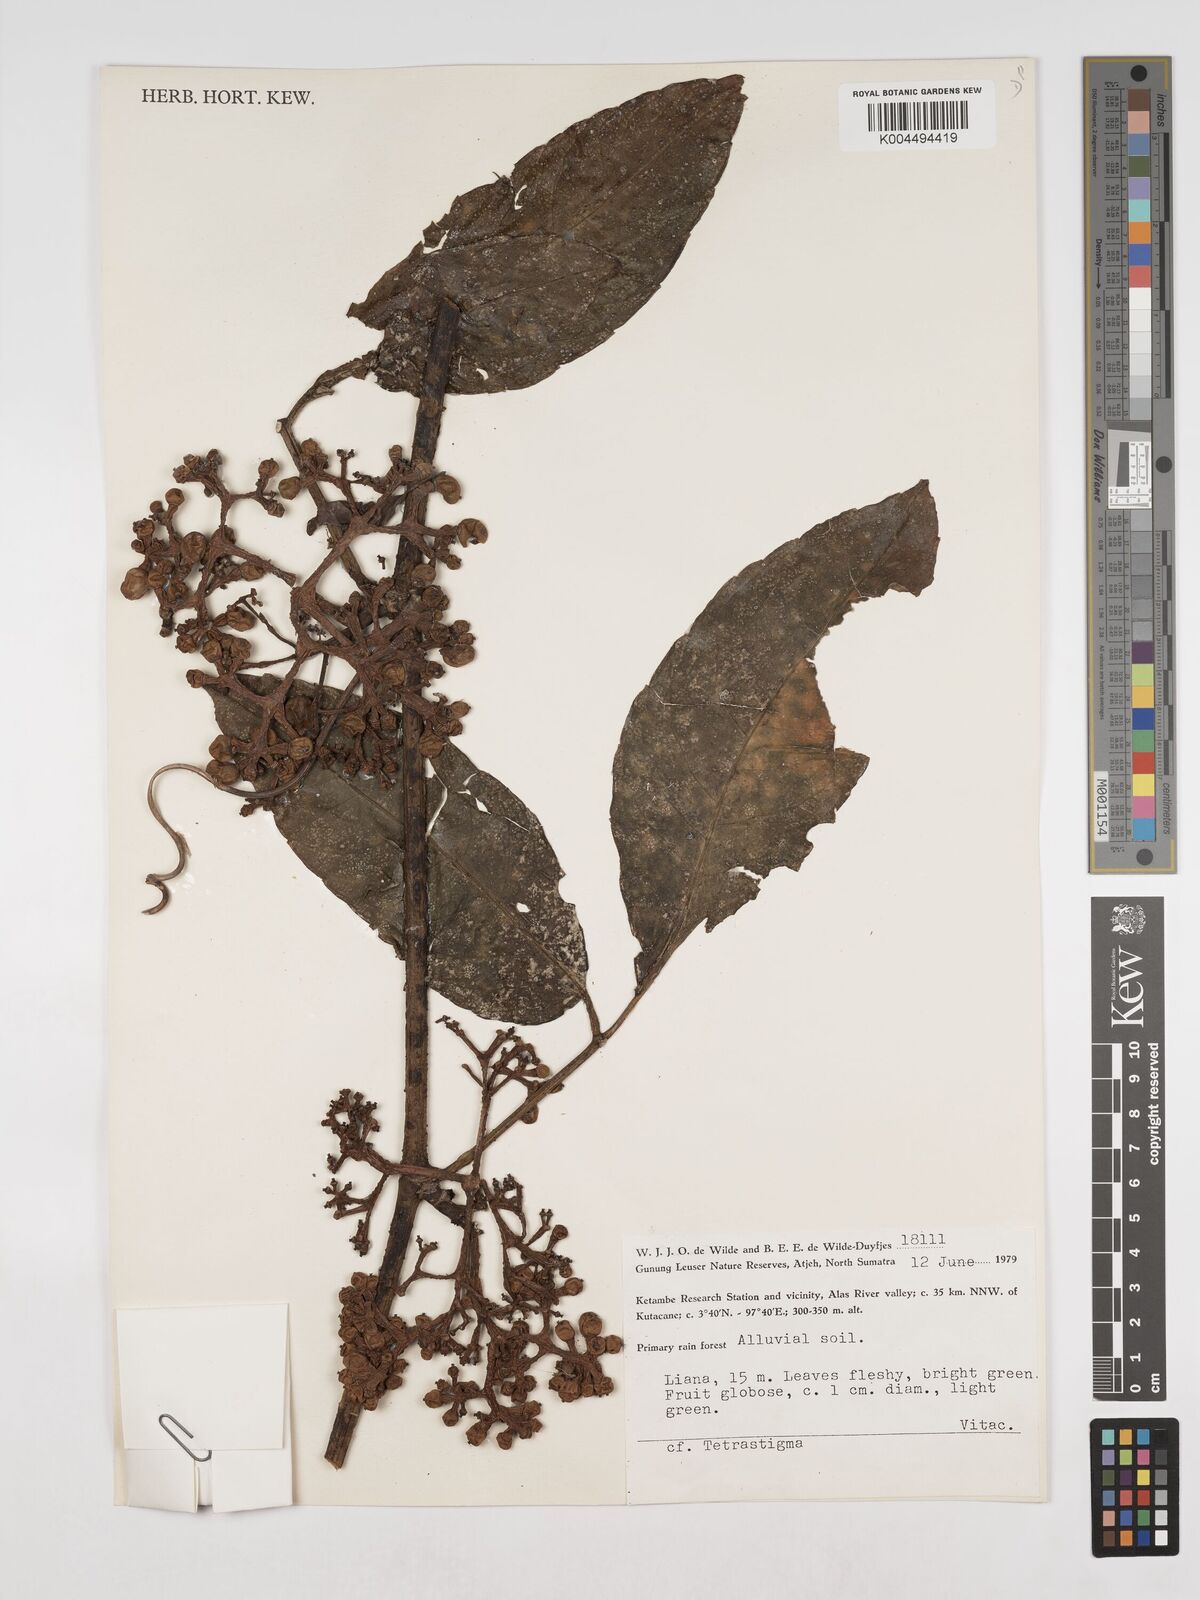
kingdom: Plantae
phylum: Tracheophyta
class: Magnoliopsida
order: Vitales
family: Vitaceae
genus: Tetrastigma
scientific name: Tetrastigma
